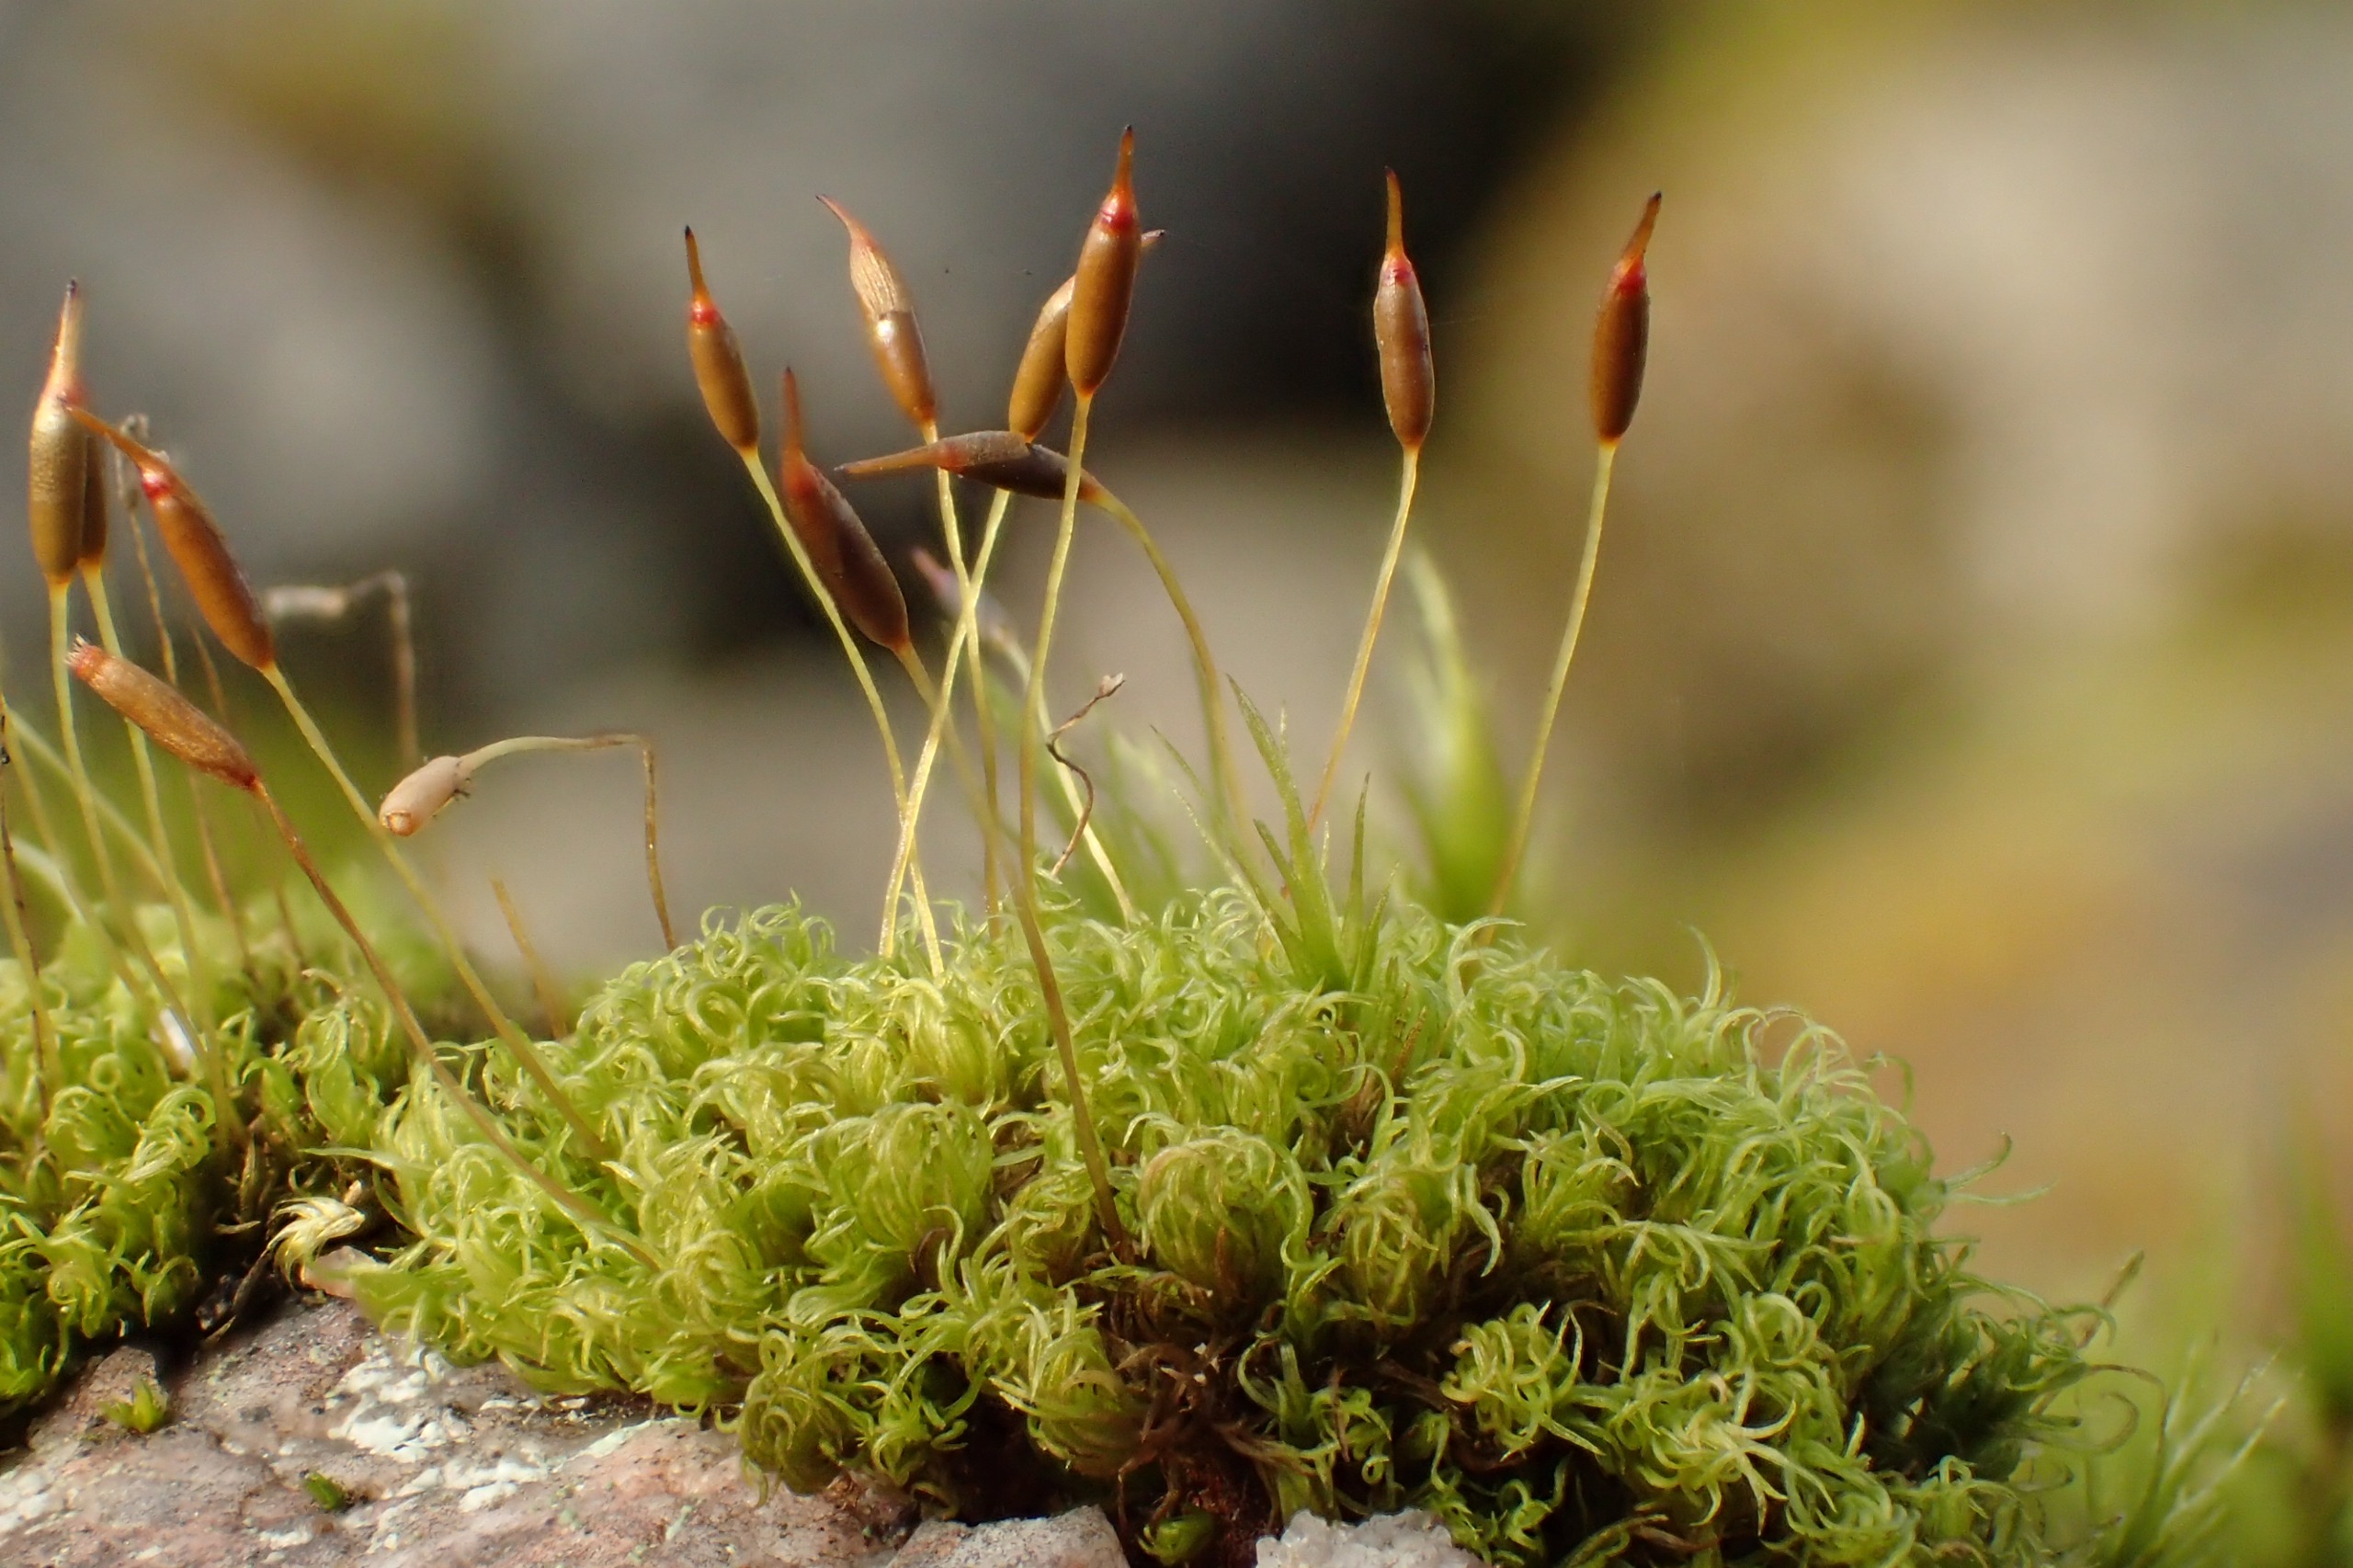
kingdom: Plantae
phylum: Bryophyta
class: Bryopsida
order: Dicranales
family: Rhabdoweisiaceae
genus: Dicranoweisia
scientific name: Dicranoweisia cirrata
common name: Almindelig krøltuemos
